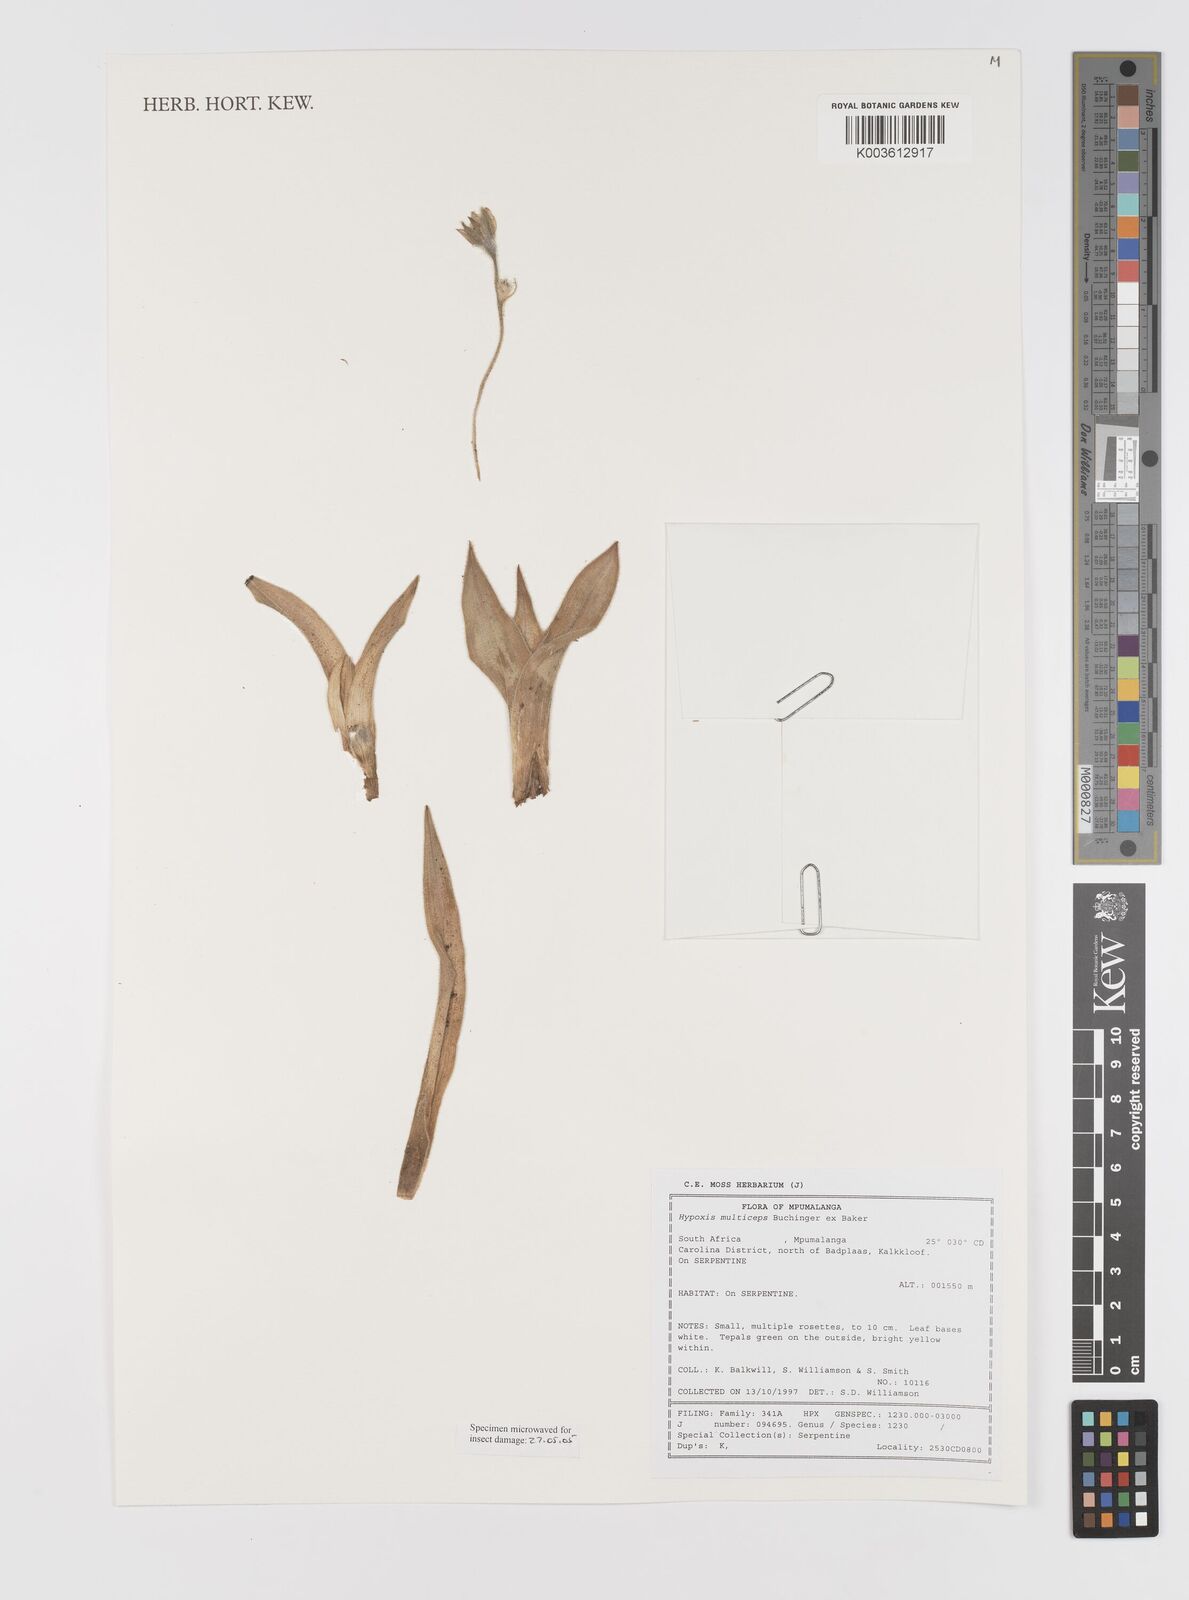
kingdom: Plantae
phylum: Tracheophyta
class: Liliopsida
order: Asparagales
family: Hypoxidaceae
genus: Hypoxis
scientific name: Hypoxis multiceps
